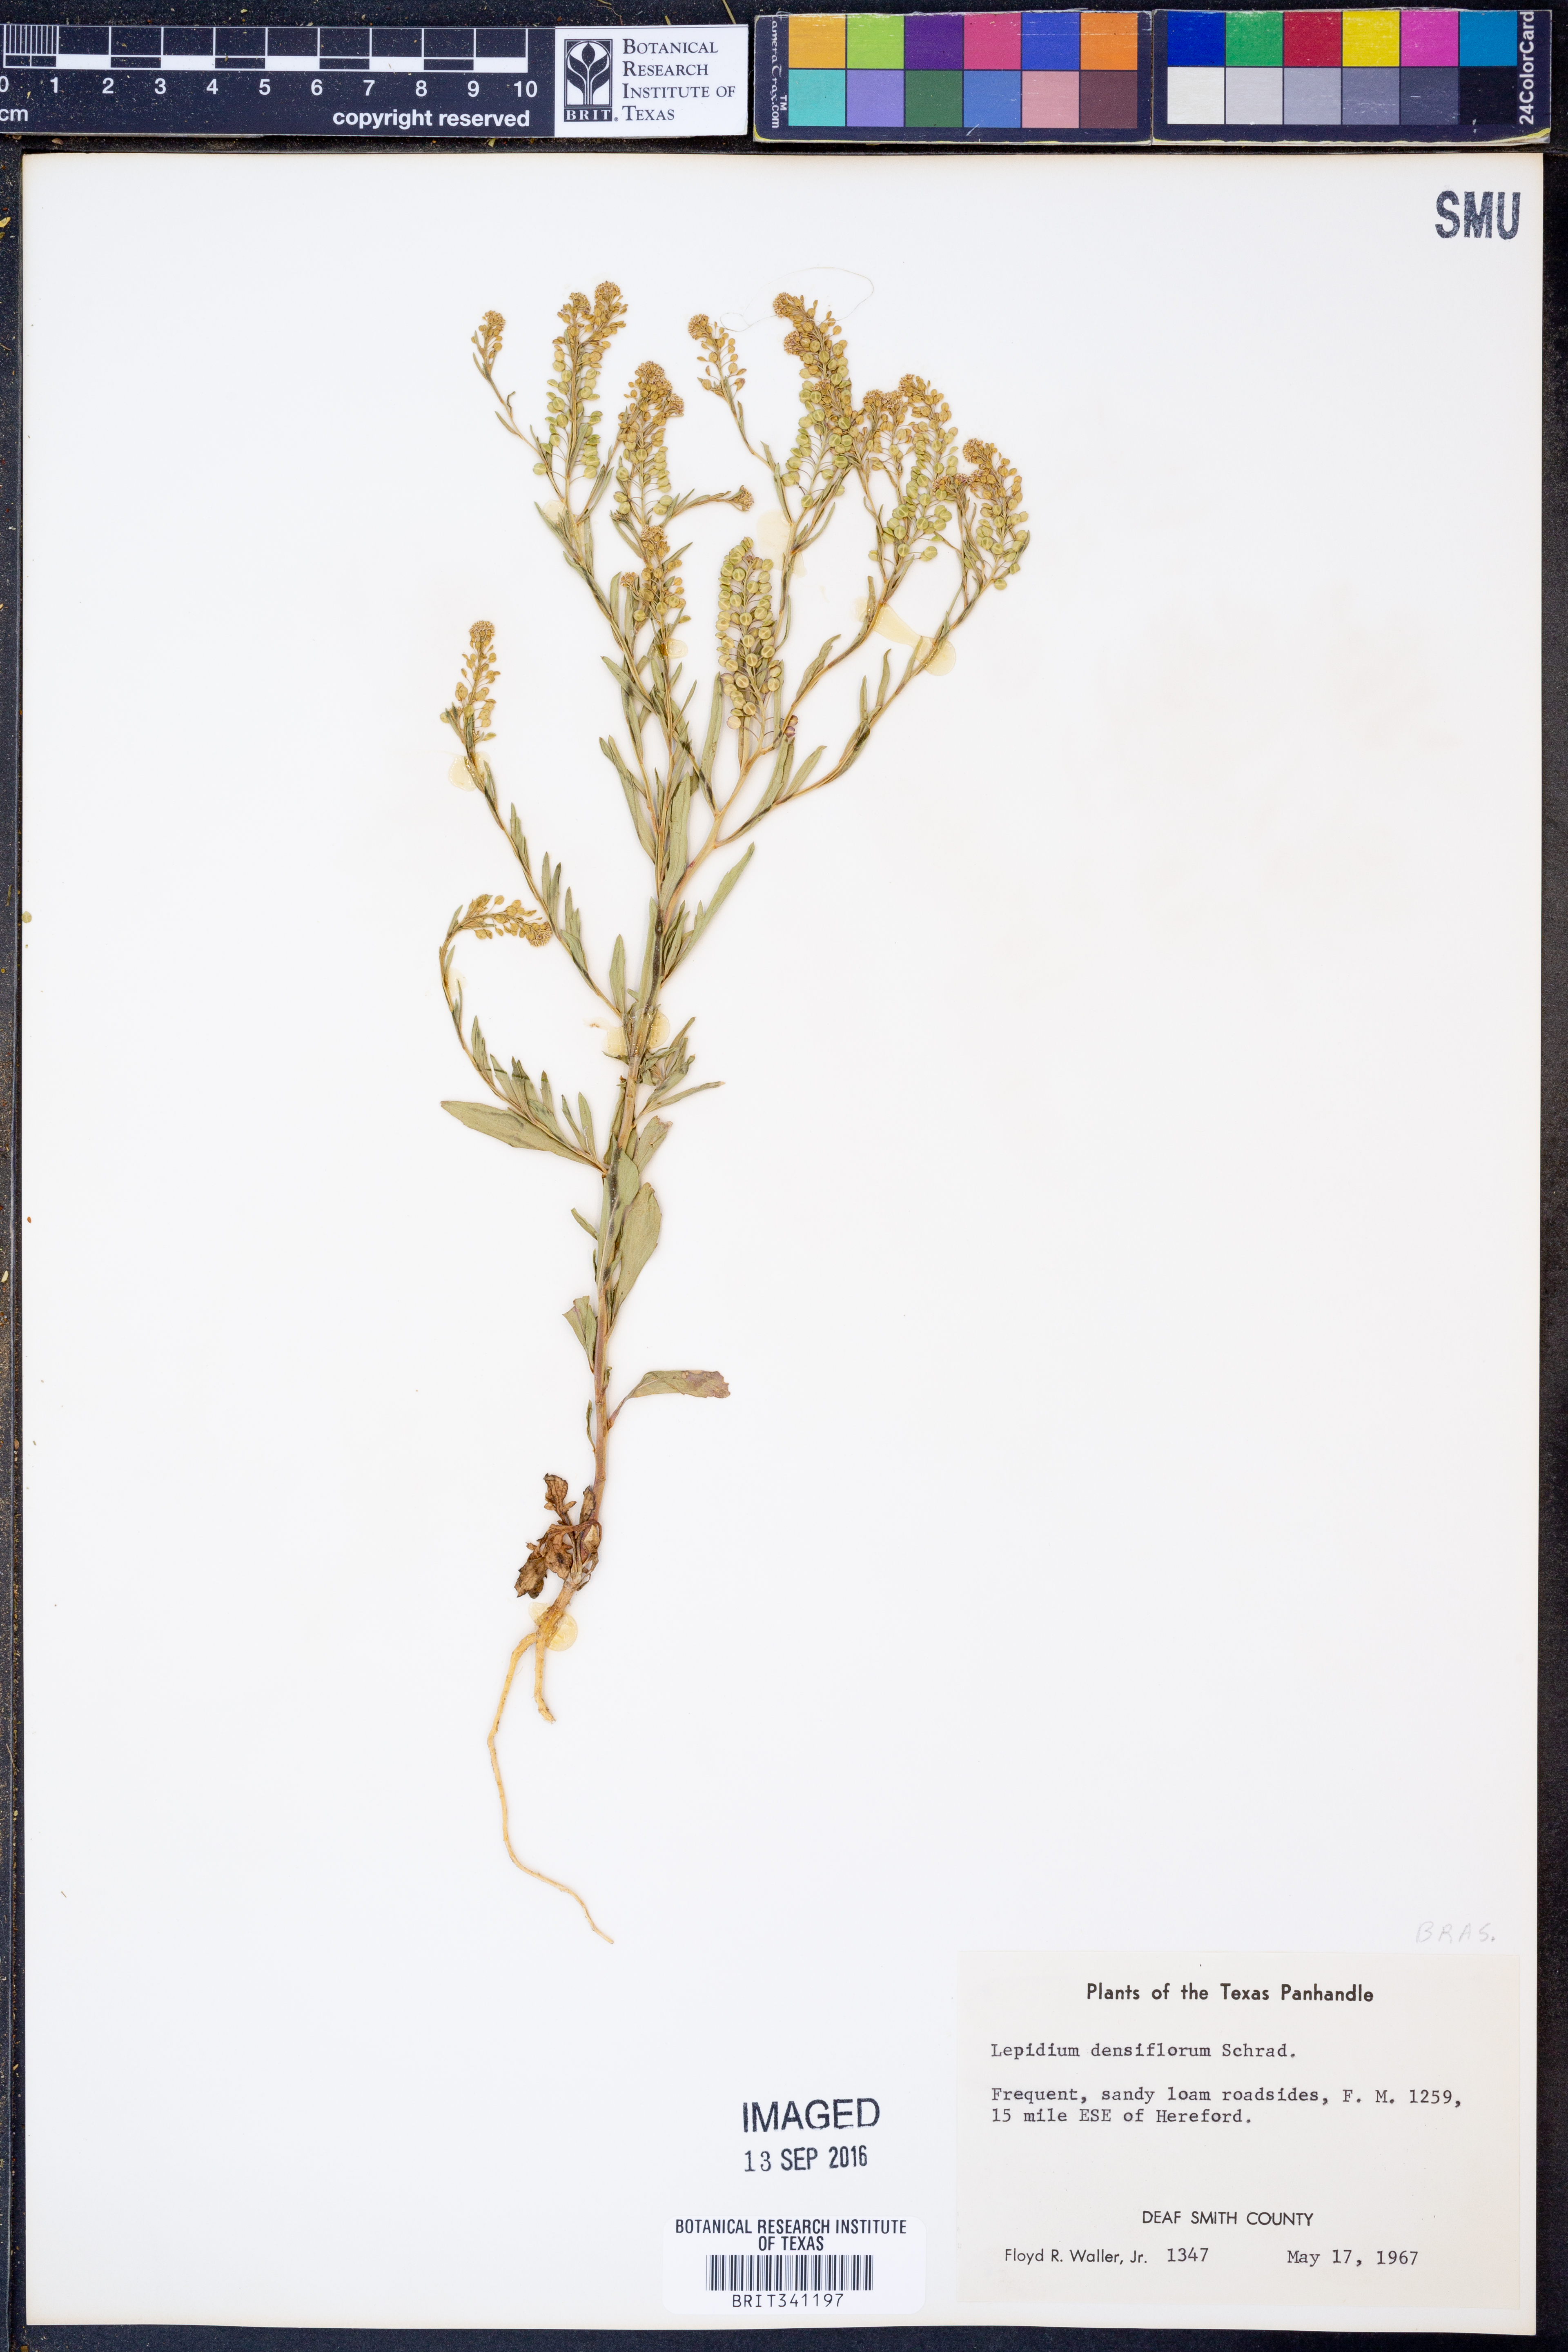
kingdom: Plantae
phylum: Tracheophyta
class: Magnoliopsida
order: Brassicales
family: Brassicaceae
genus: Lepidium
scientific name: Lepidium densiflorum
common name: Miner's pepperwort
